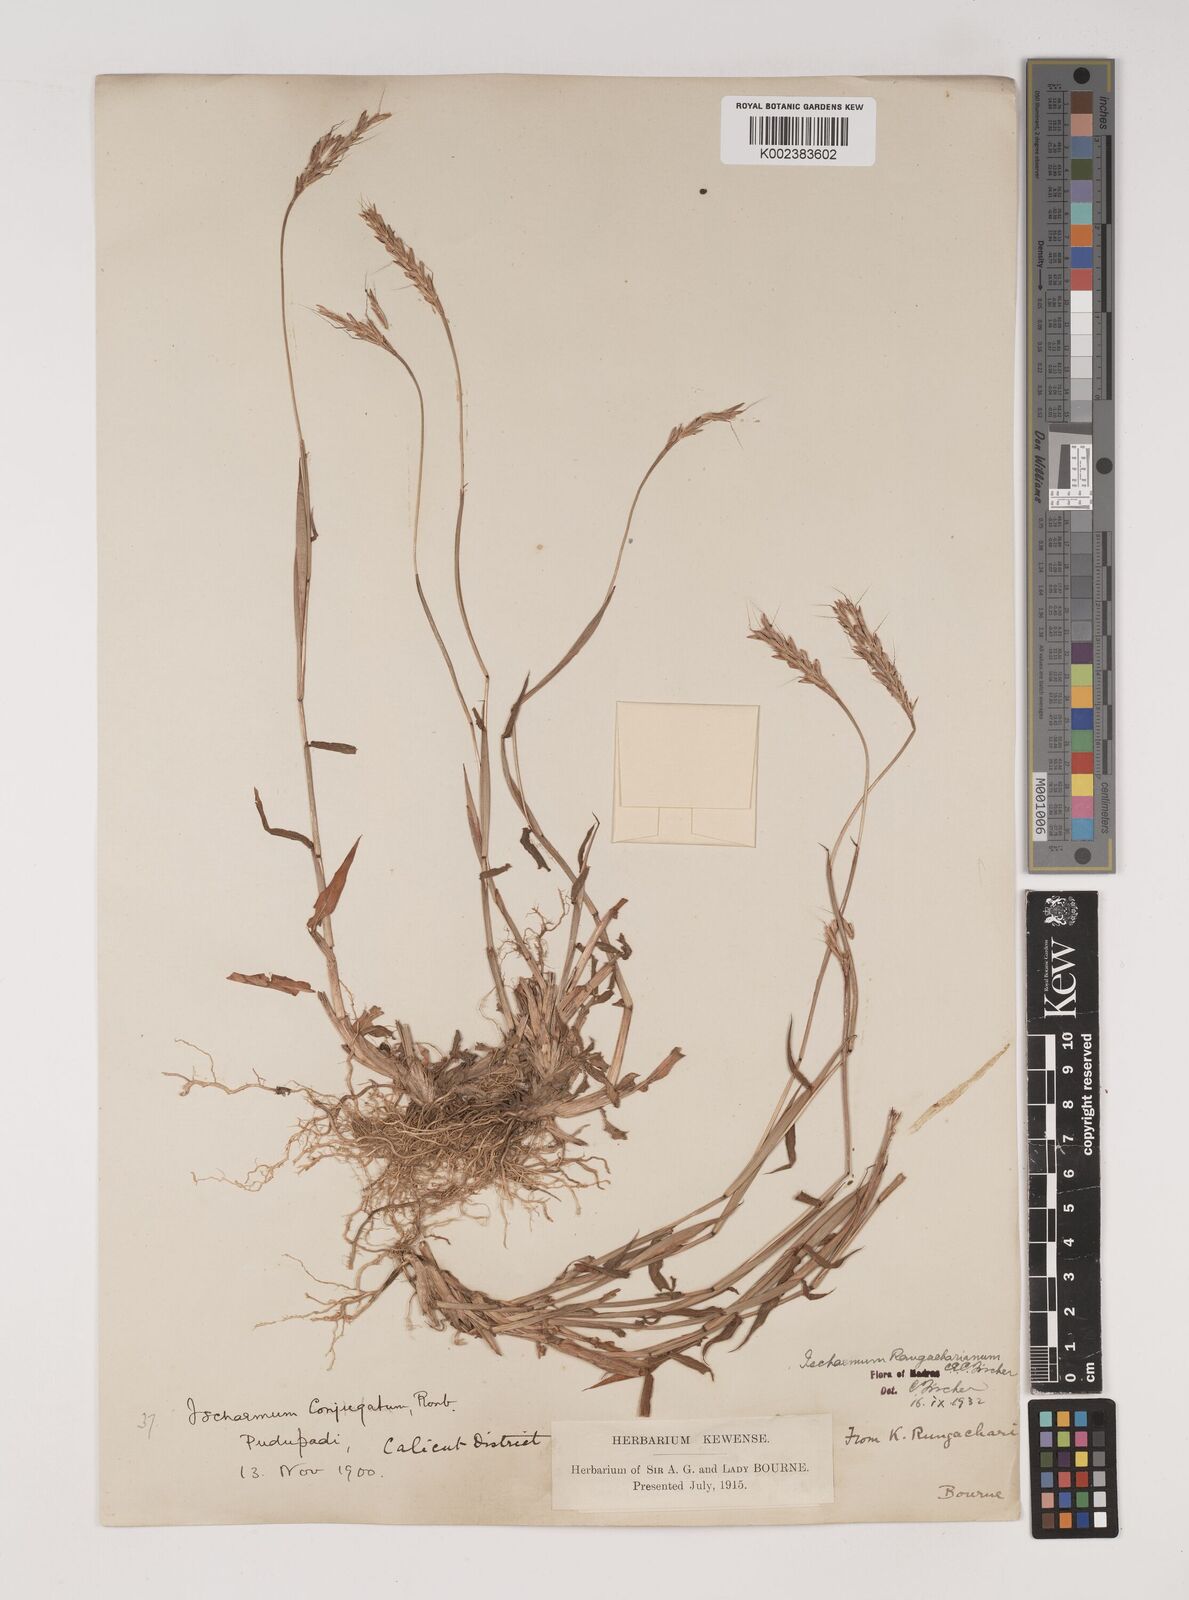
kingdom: Plantae
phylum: Tracheophyta
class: Liliopsida
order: Poales
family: Poaceae
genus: Ischaemum
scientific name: Ischaemum rangacharianum
